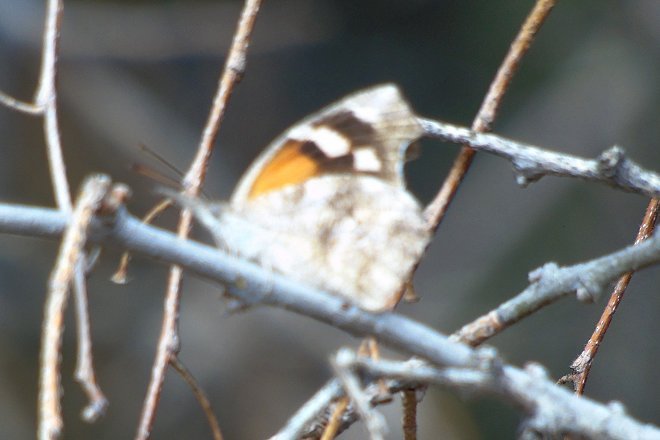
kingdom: Animalia
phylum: Arthropoda
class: Insecta
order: Lepidoptera
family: Nymphalidae
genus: Libytheana
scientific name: Libytheana carinenta
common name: American Snout
